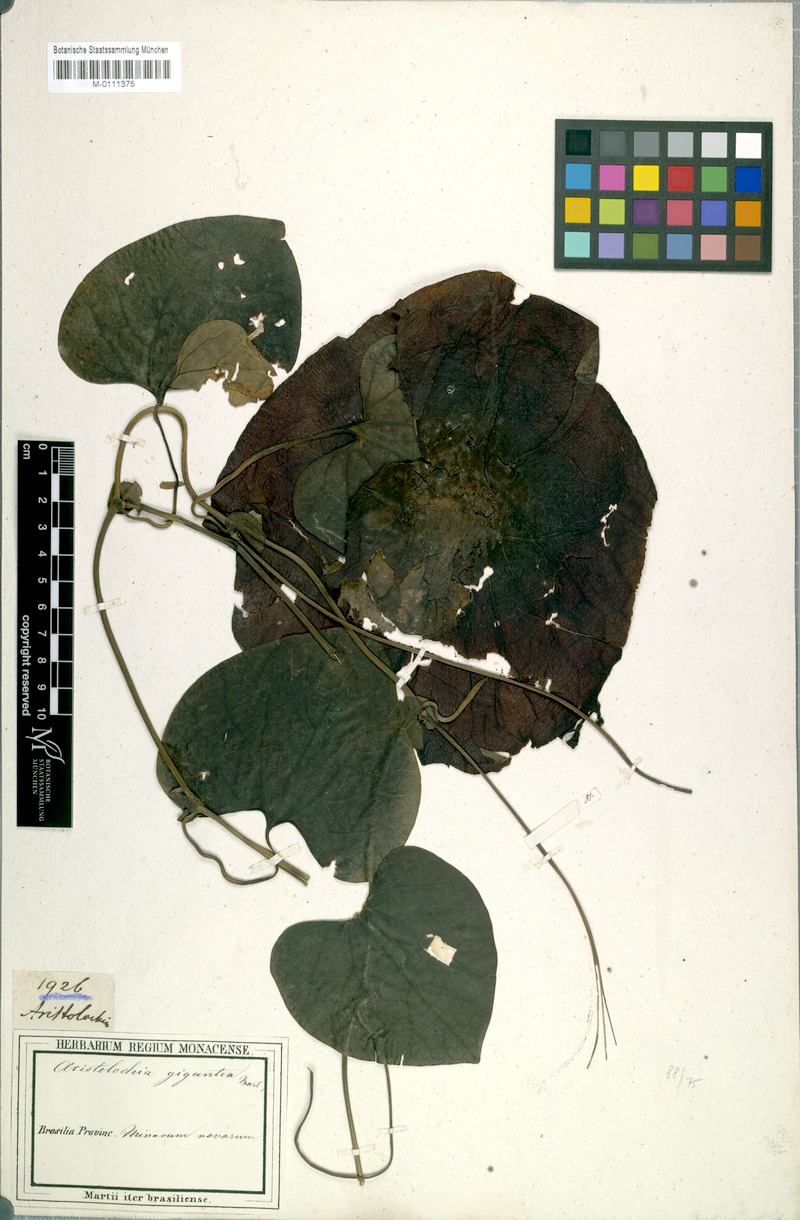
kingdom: Plantae
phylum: Tracheophyta
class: Magnoliopsida
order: Piperales
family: Aristolochiaceae
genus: Aristolochia
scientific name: Aristolochia gigantea
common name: Duckflower
